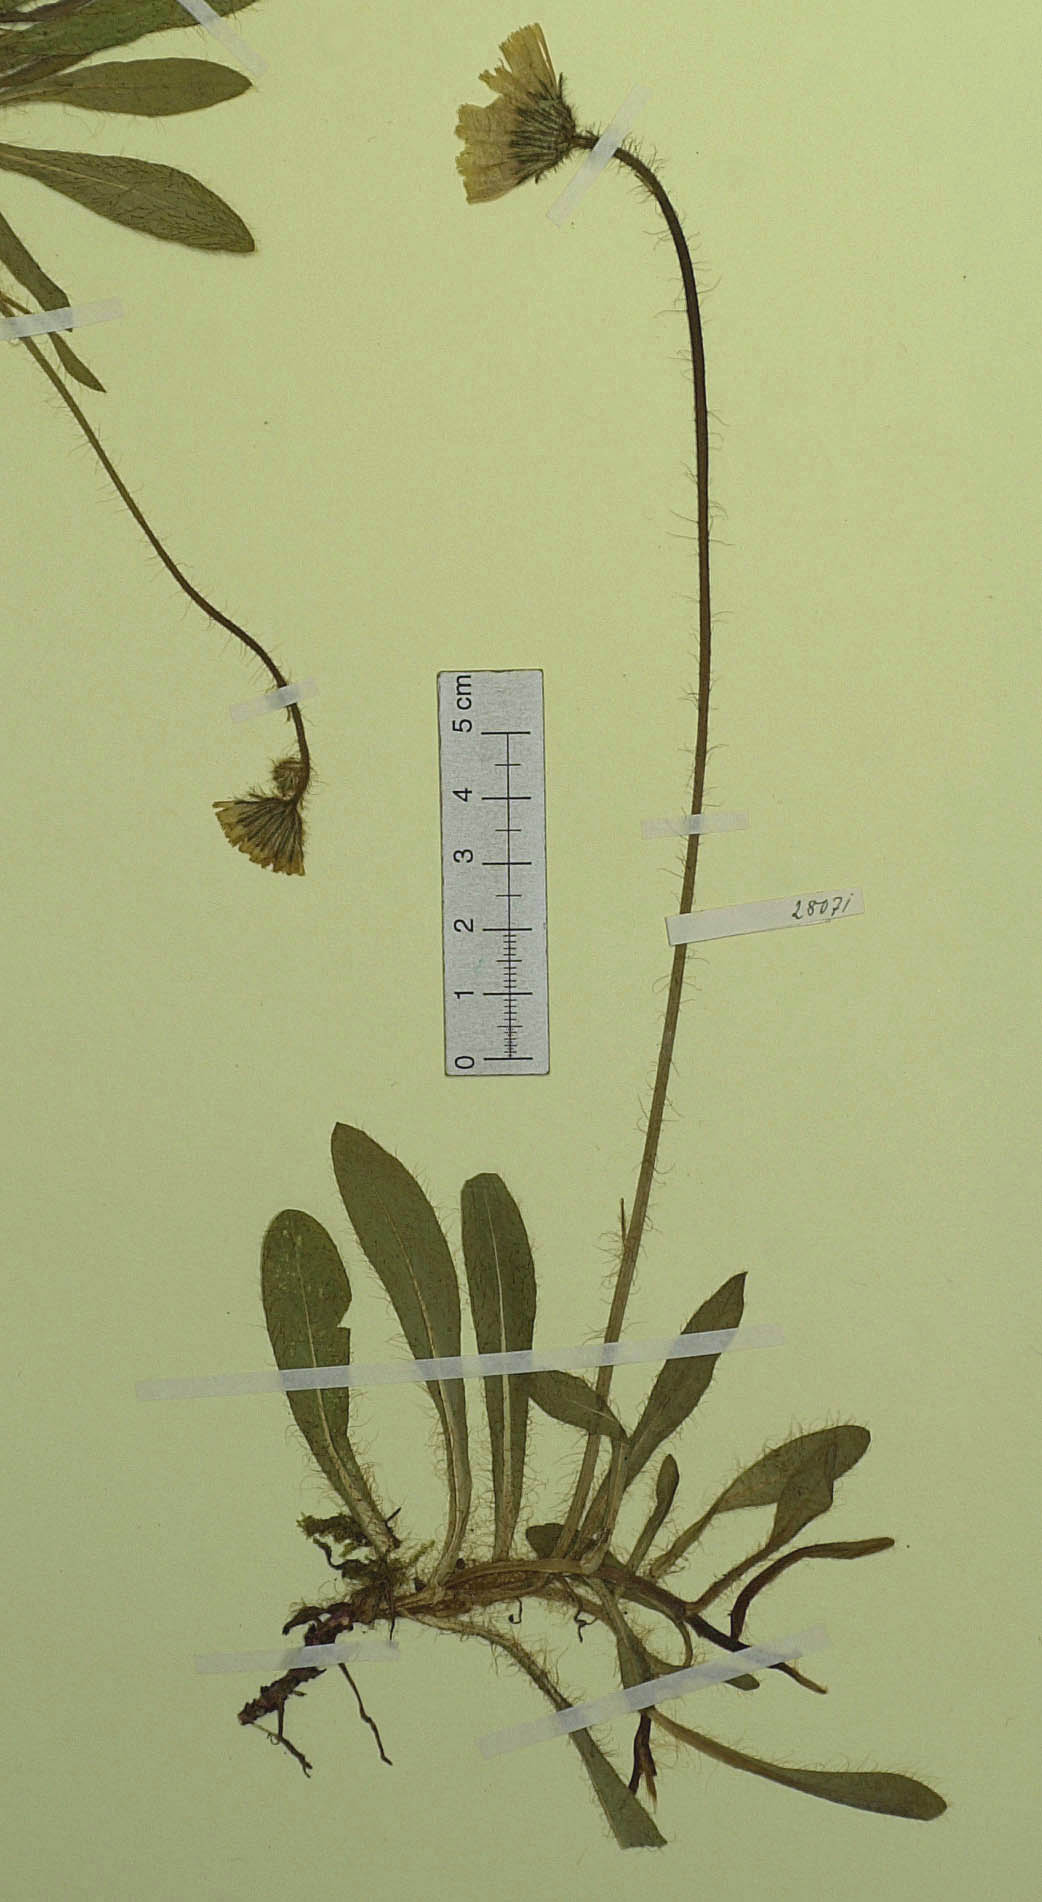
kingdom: Plantae
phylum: Tracheophyta
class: Magnoliopsida
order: Asterales
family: Asteraceae
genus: Hieracium
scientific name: Hieracium sphaerocephalum
